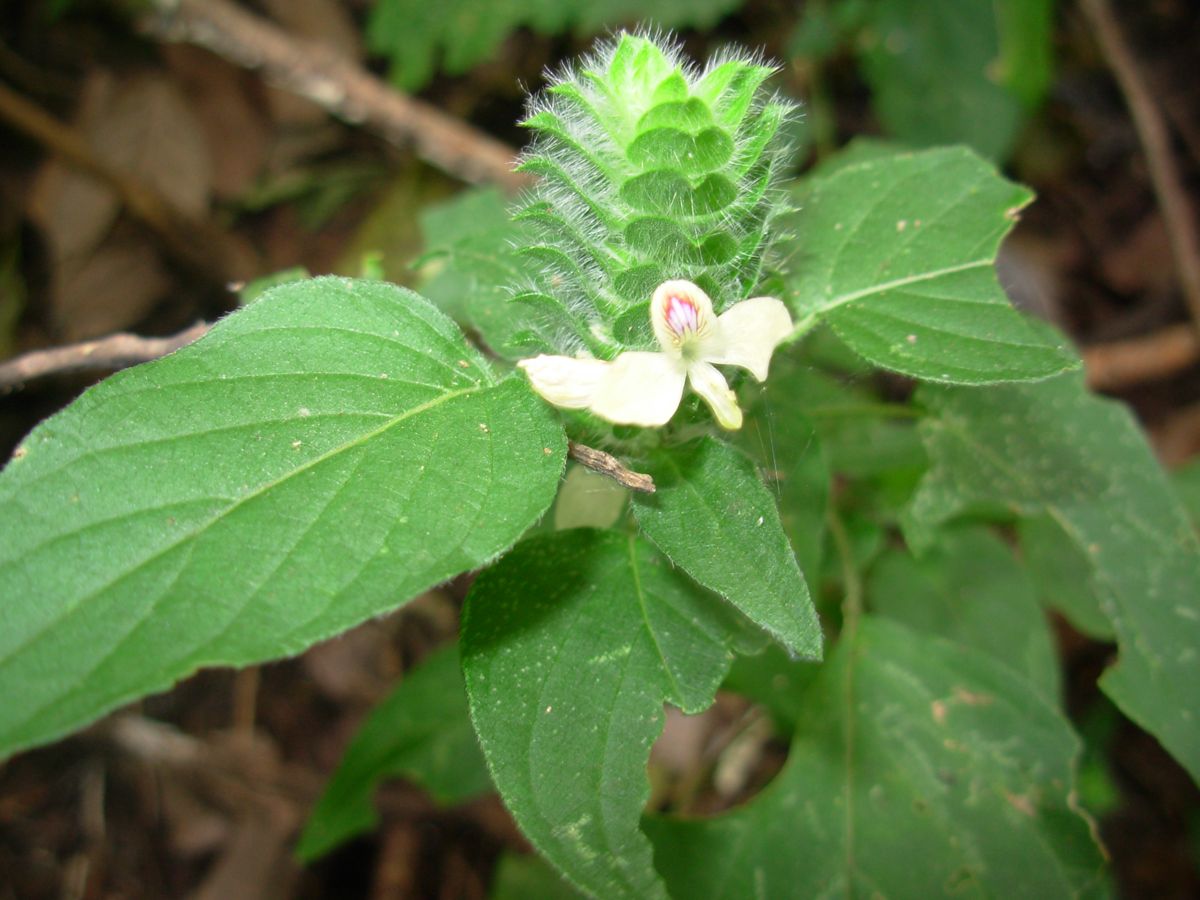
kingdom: Plantae
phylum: Tracheophyta
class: Magnoliopsida
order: Lamiales
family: Acanthaceae
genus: Tetramerium
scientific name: Tetramerium nervosum
